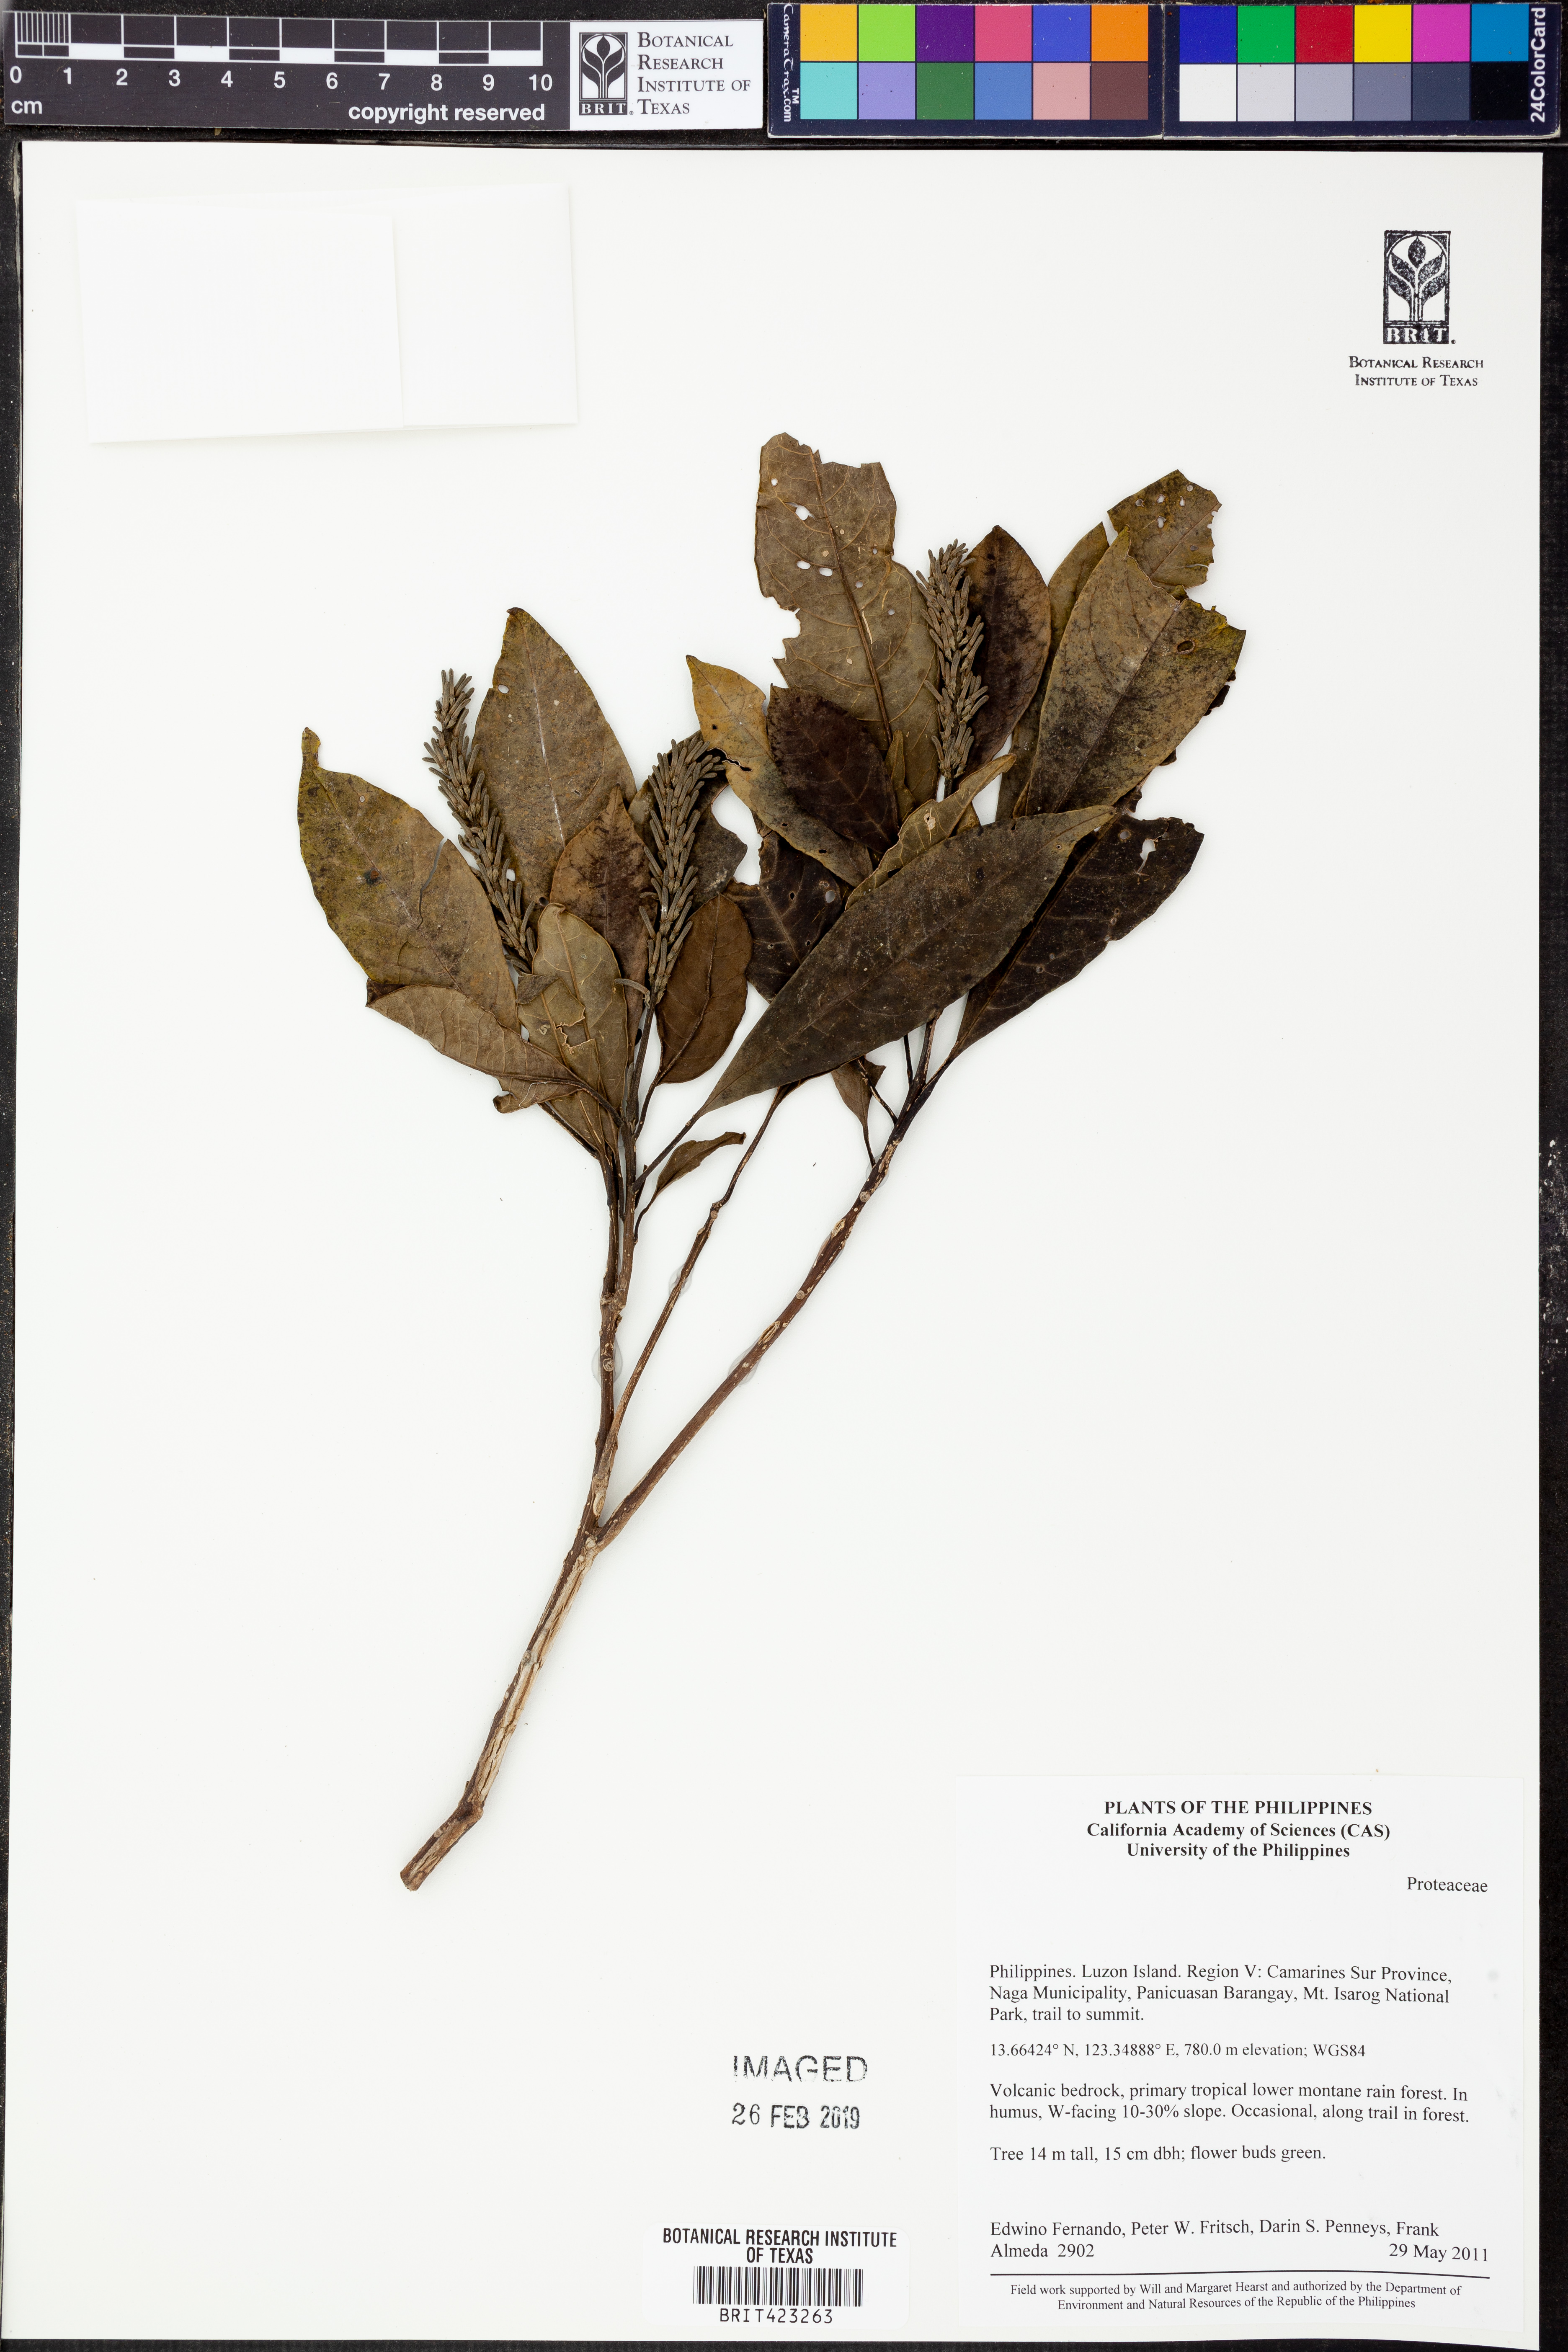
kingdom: Plantae
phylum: Tracheophyta
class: Magnoliopsida
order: Proteales
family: Proteaceae
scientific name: Proteaceae
